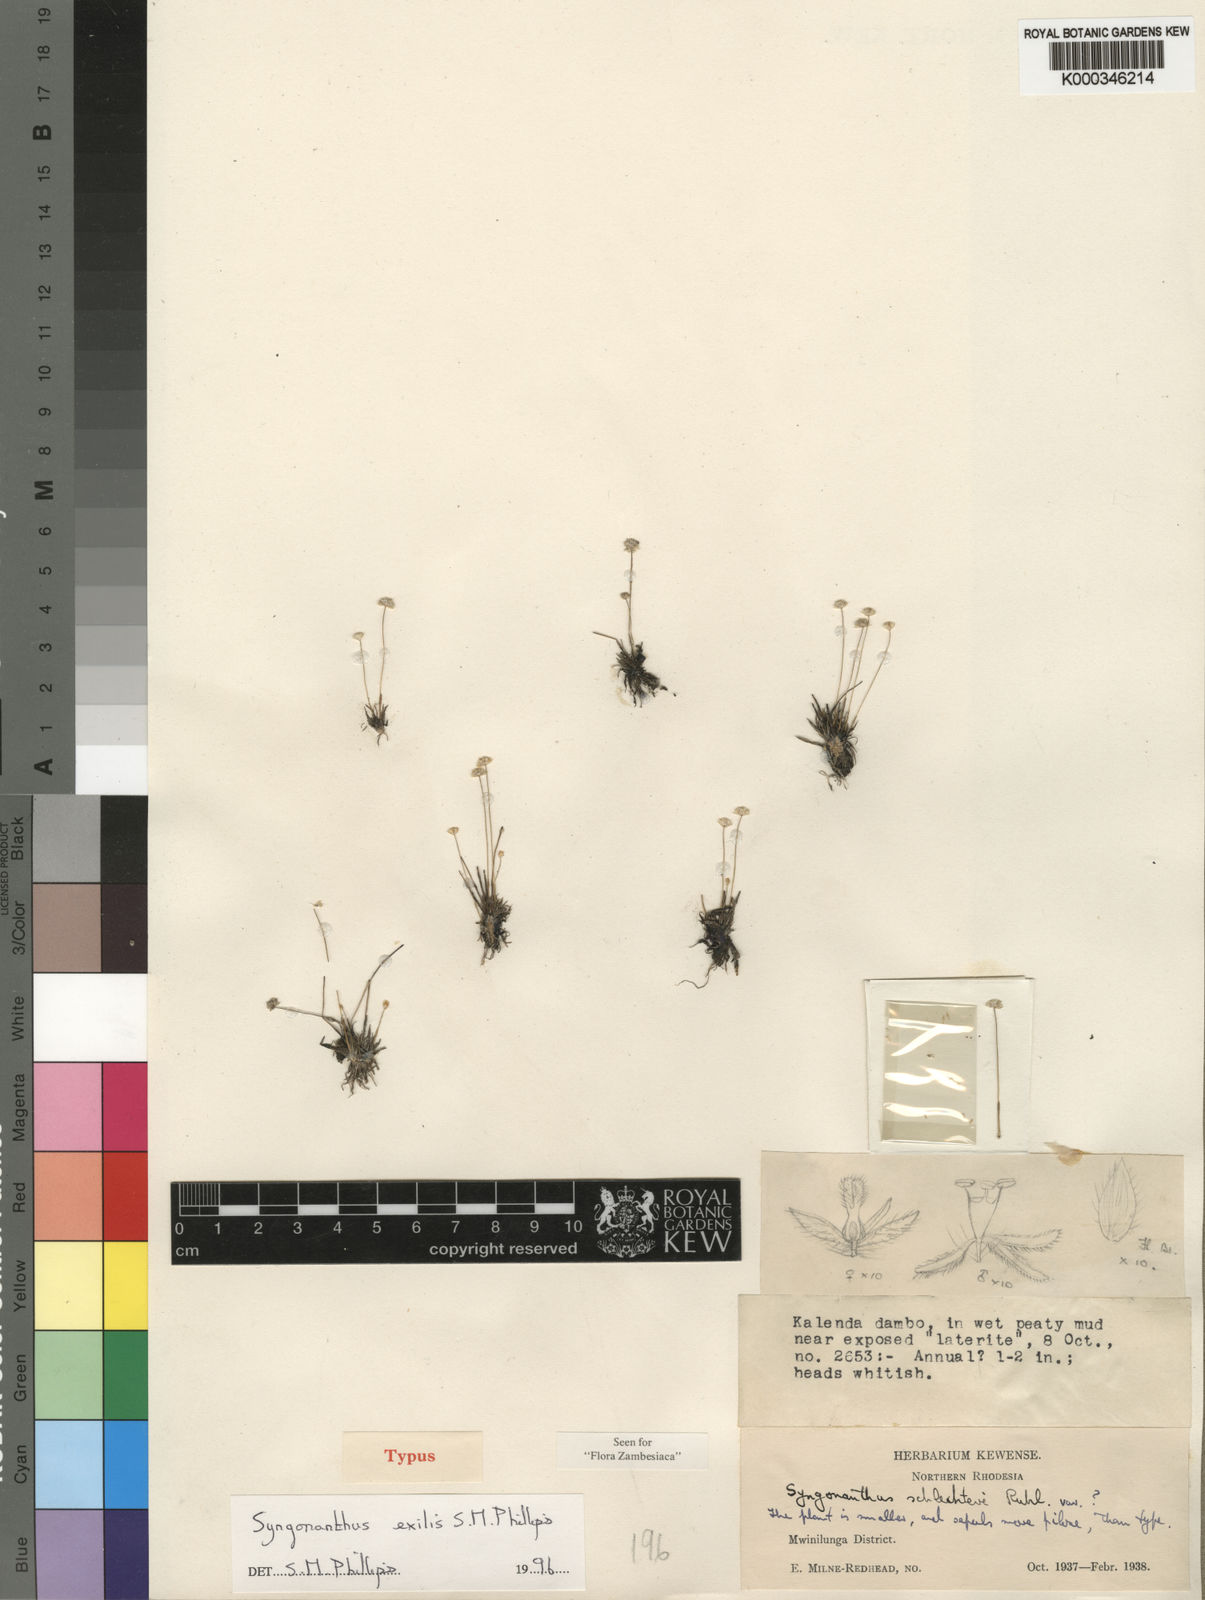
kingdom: Plantae
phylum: Tracheophyta
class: Liliopsida
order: Poales
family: Eriocaulaceae
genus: Syngonanthus
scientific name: Syngonanthus exilis
